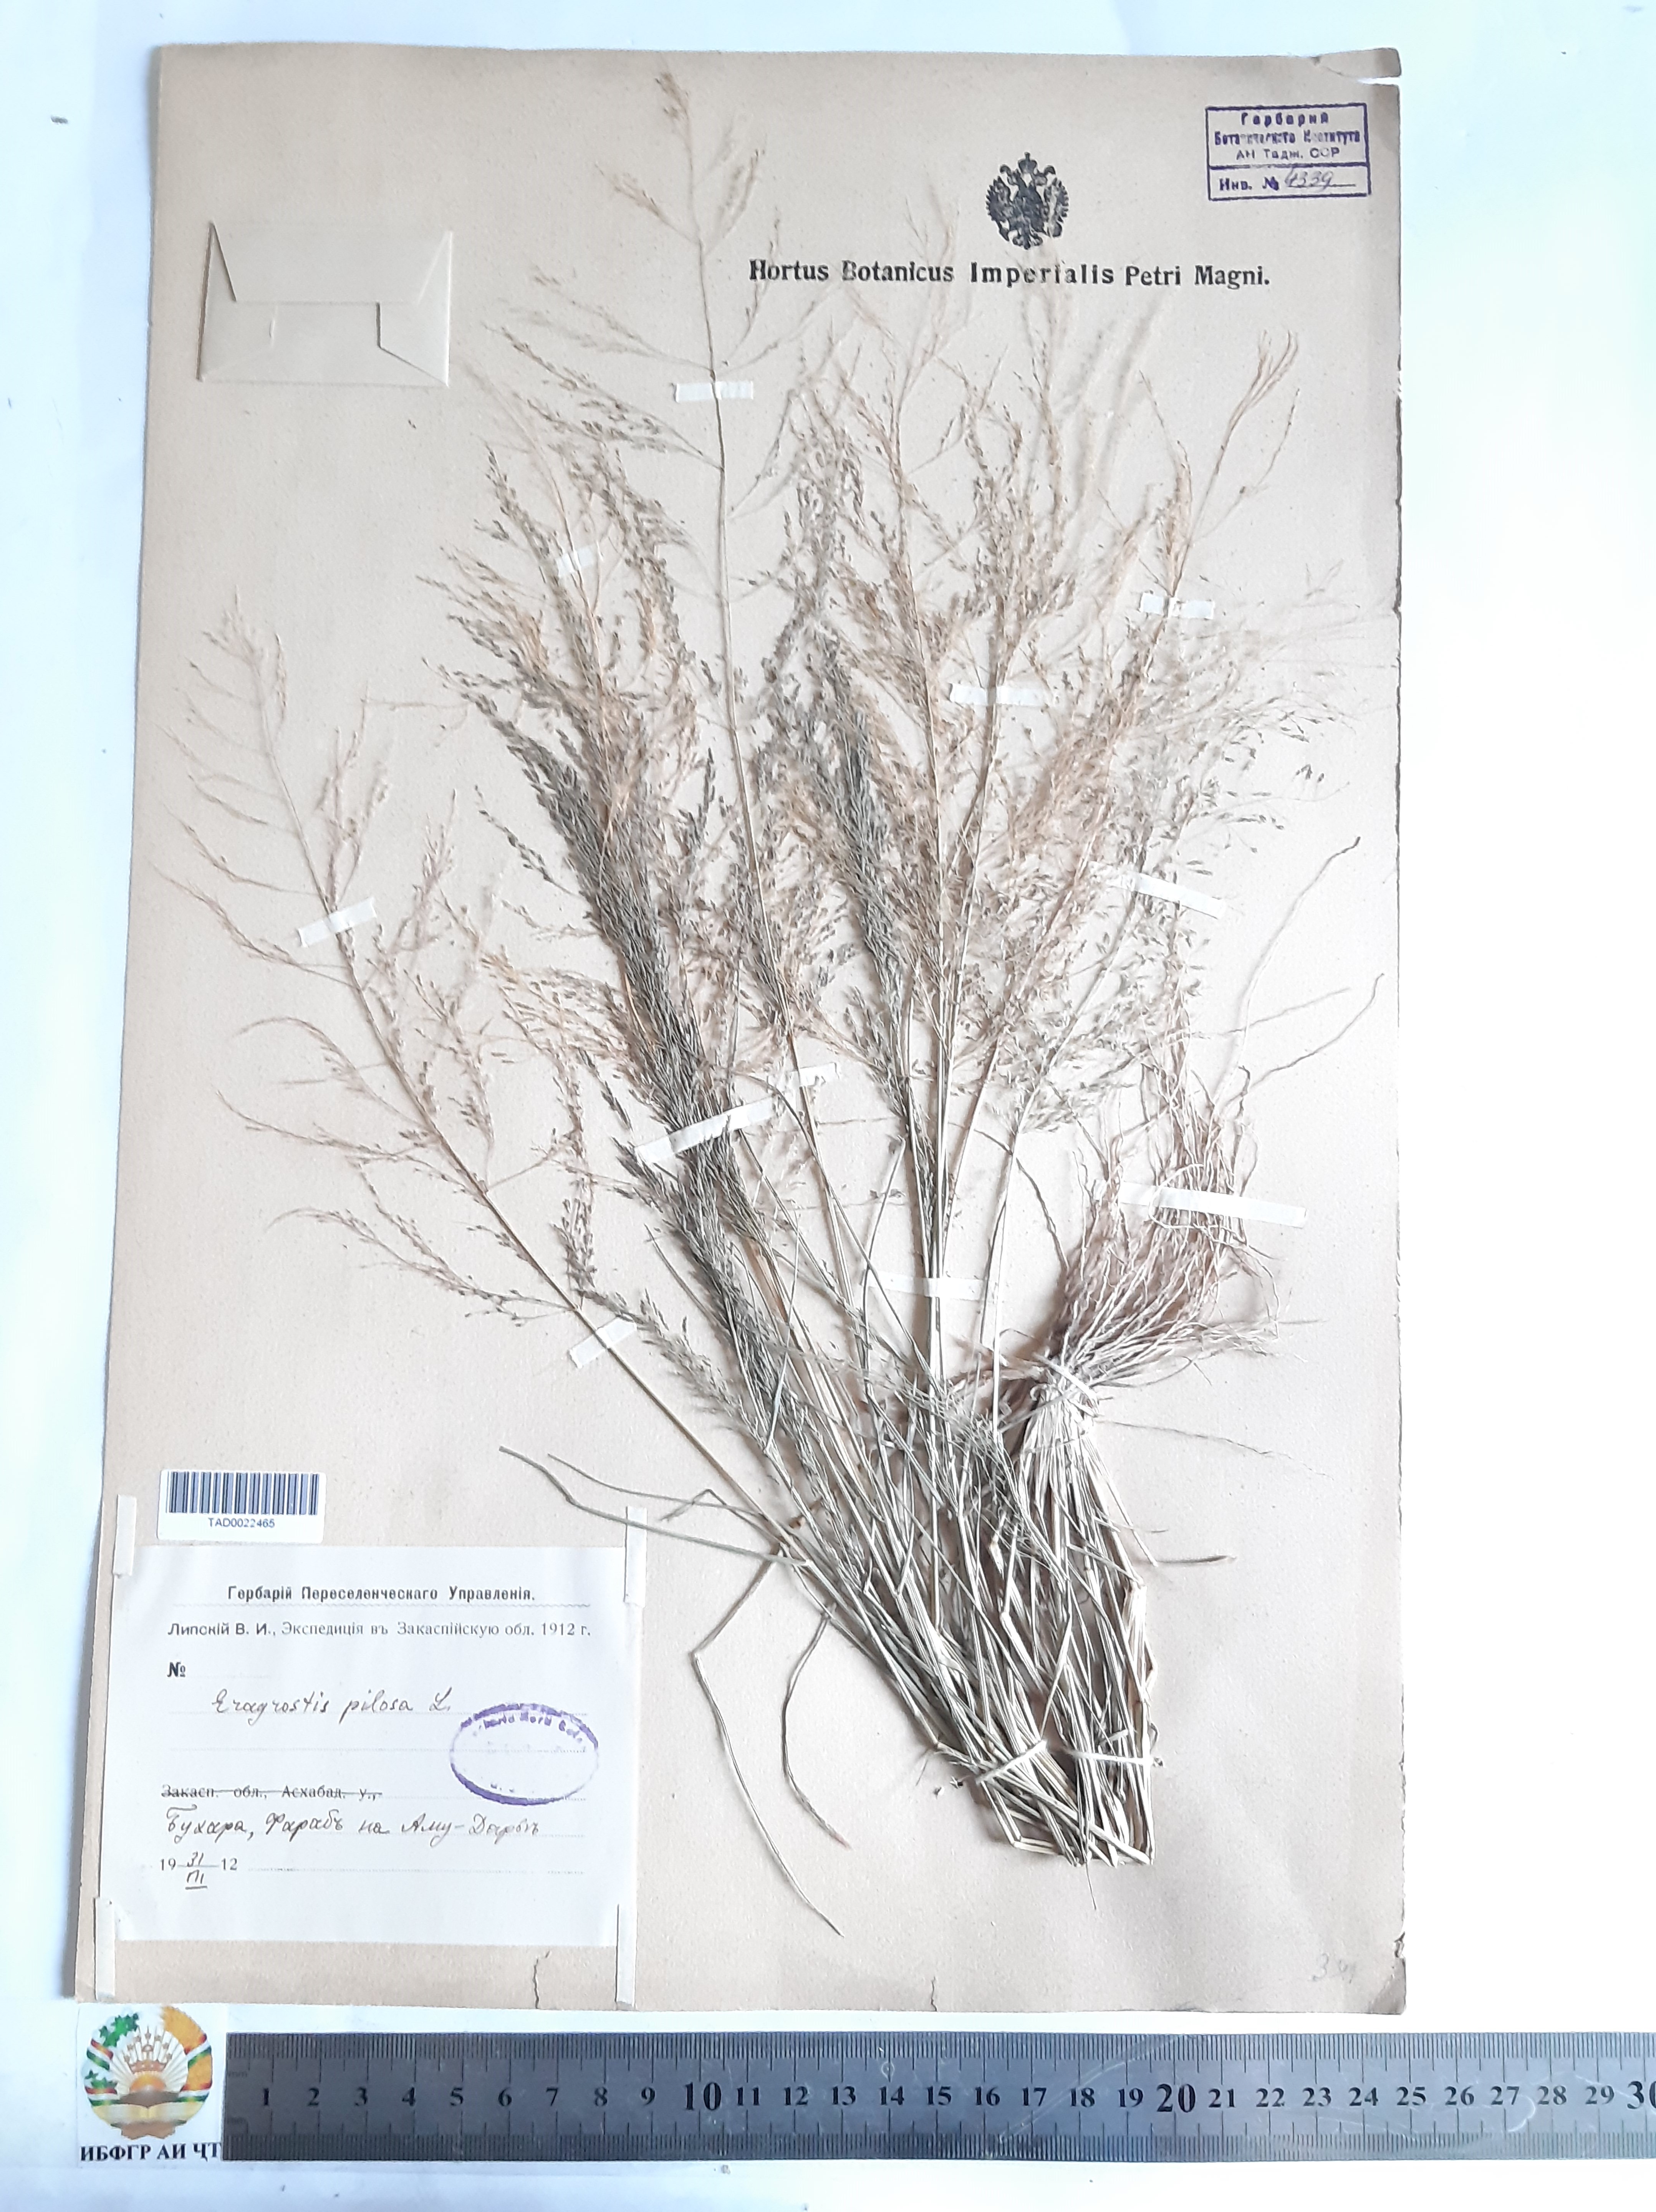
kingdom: Plantae
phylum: Tracheophyta
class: Liliopsida
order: Poales
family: Poaceae
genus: Eragrostis
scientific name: Eragrostis pilosa
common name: Indian lovegrass
